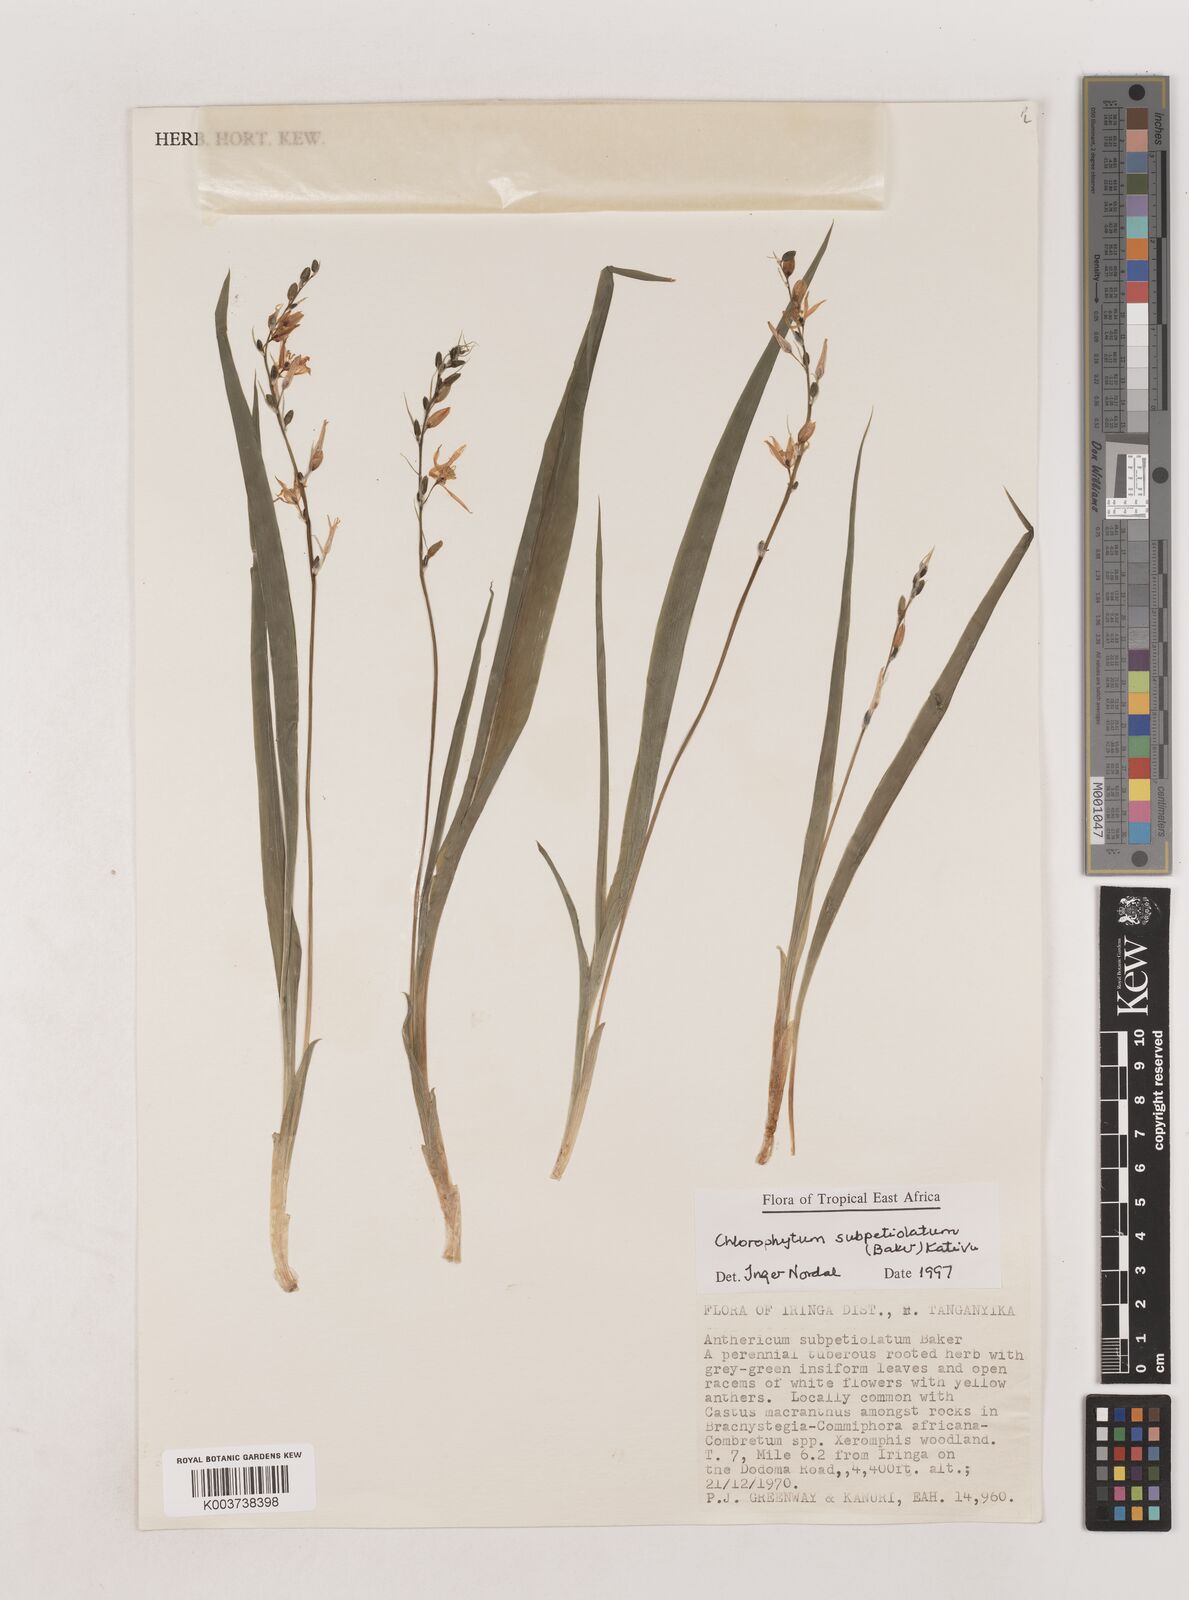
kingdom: Plantae
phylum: Tracheophyta
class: Liliopsida
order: Asparagales
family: Asparagaceae
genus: Chlorophytum
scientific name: Chlorophytum subpetiolatum
